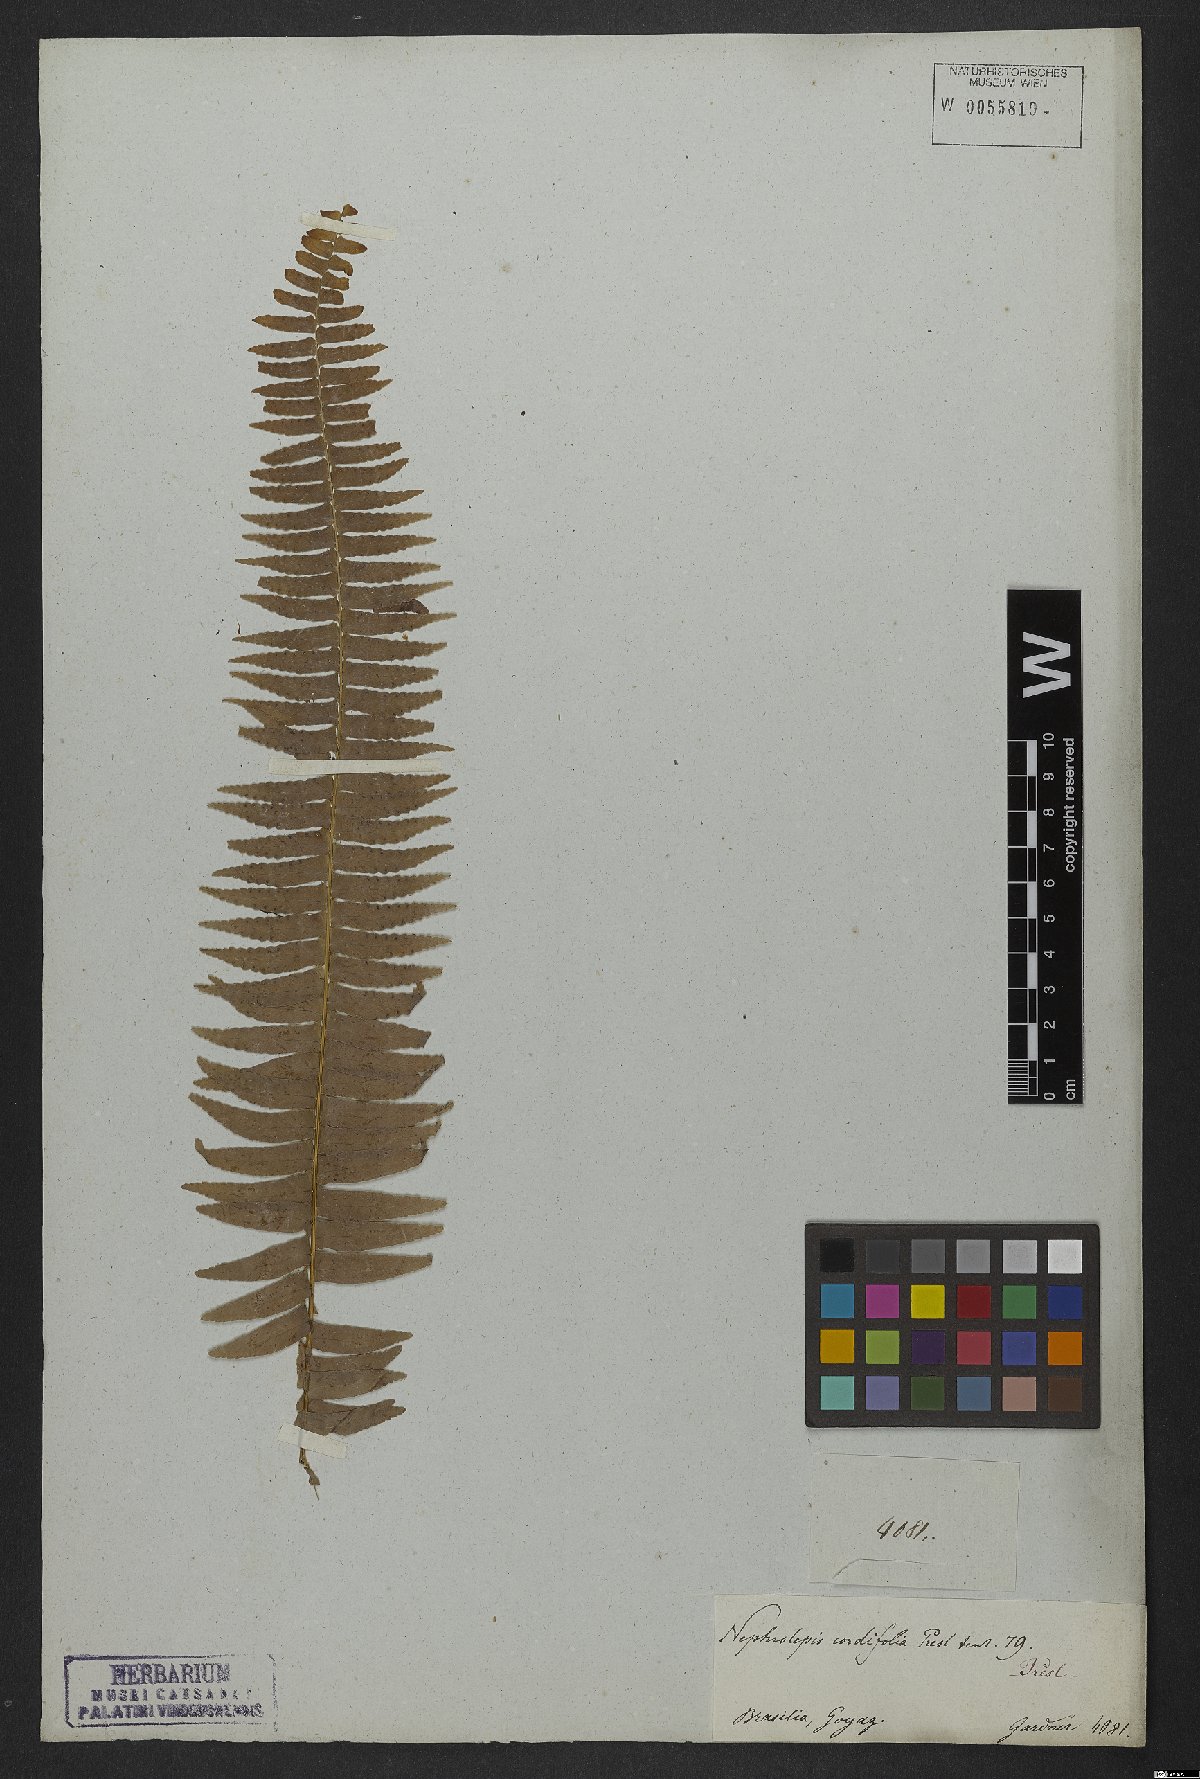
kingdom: Plantae
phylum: Tracheophyta
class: Polypodiopsida
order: Polypodiales
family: Nephrolepidaceae
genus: Nephrolepis
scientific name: Nephrolepis cordifolia
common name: Narrow swordfern
